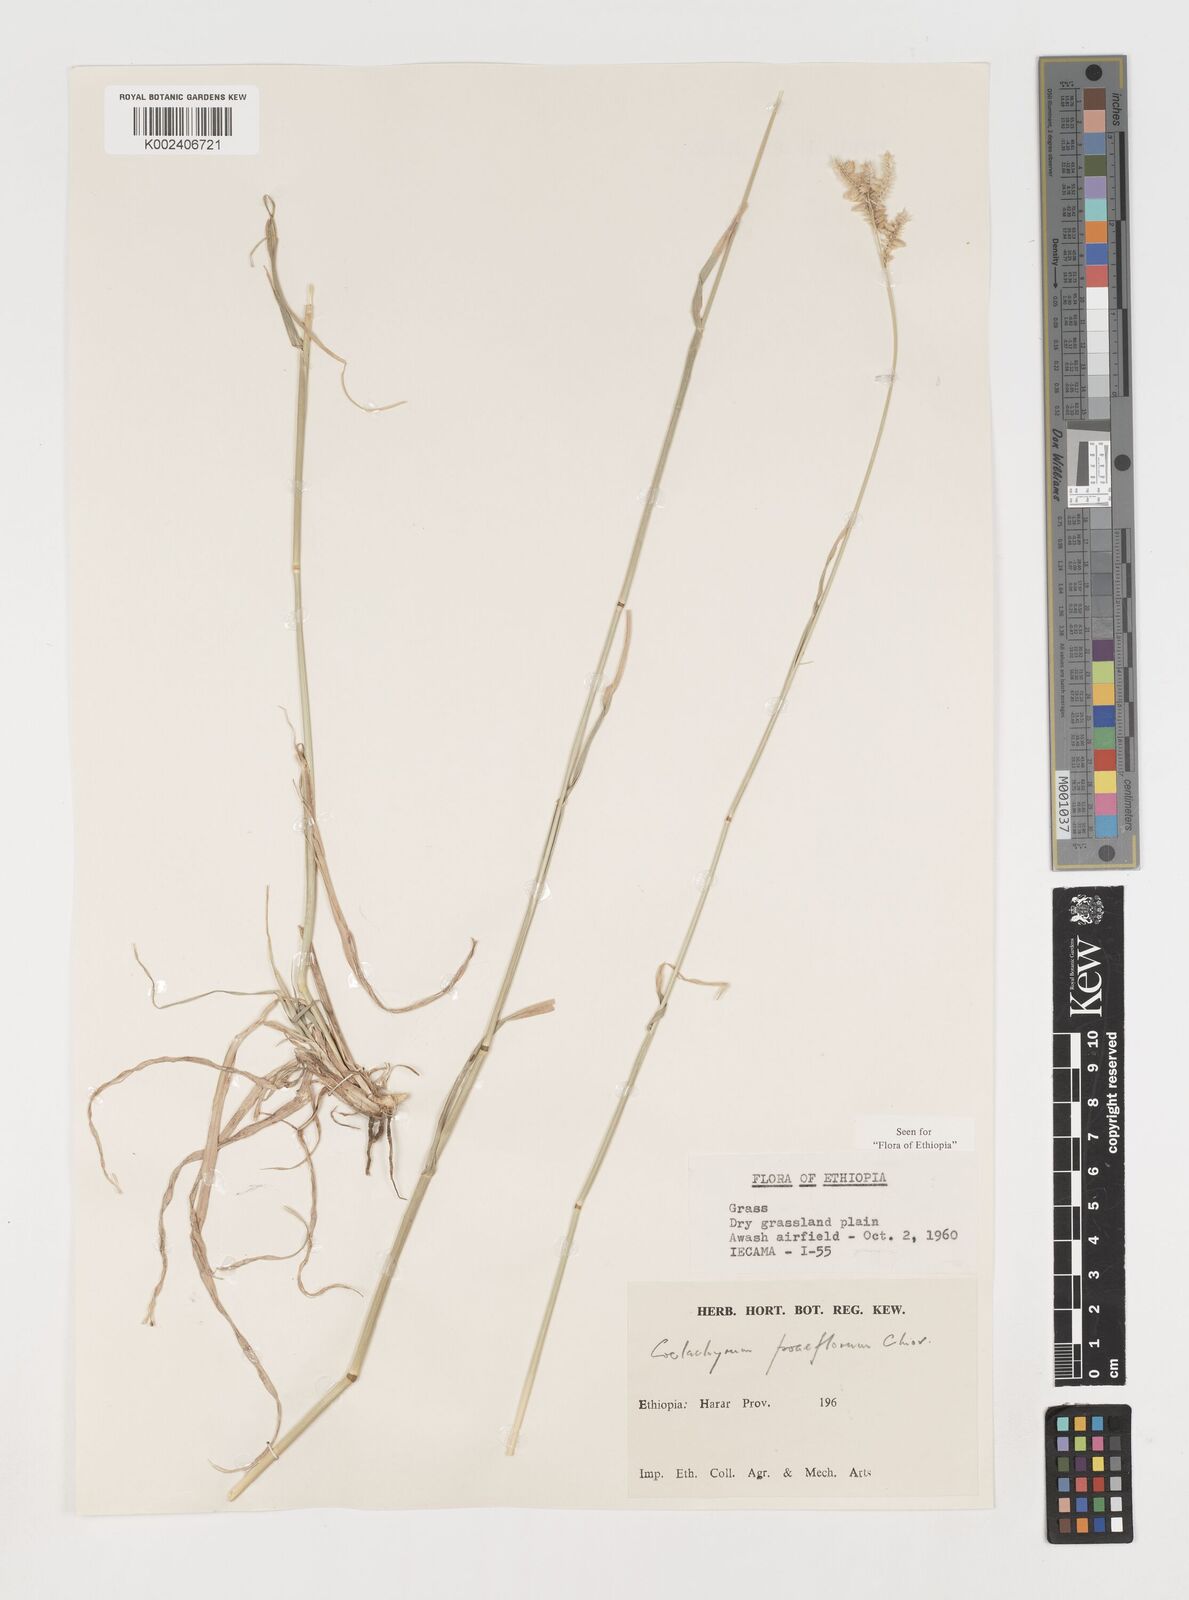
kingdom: Plantae
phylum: Tracheophyta
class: Liliopsida
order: Poales
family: Poaceae
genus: Coelachyrum
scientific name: Coelachyrum poiflorum
